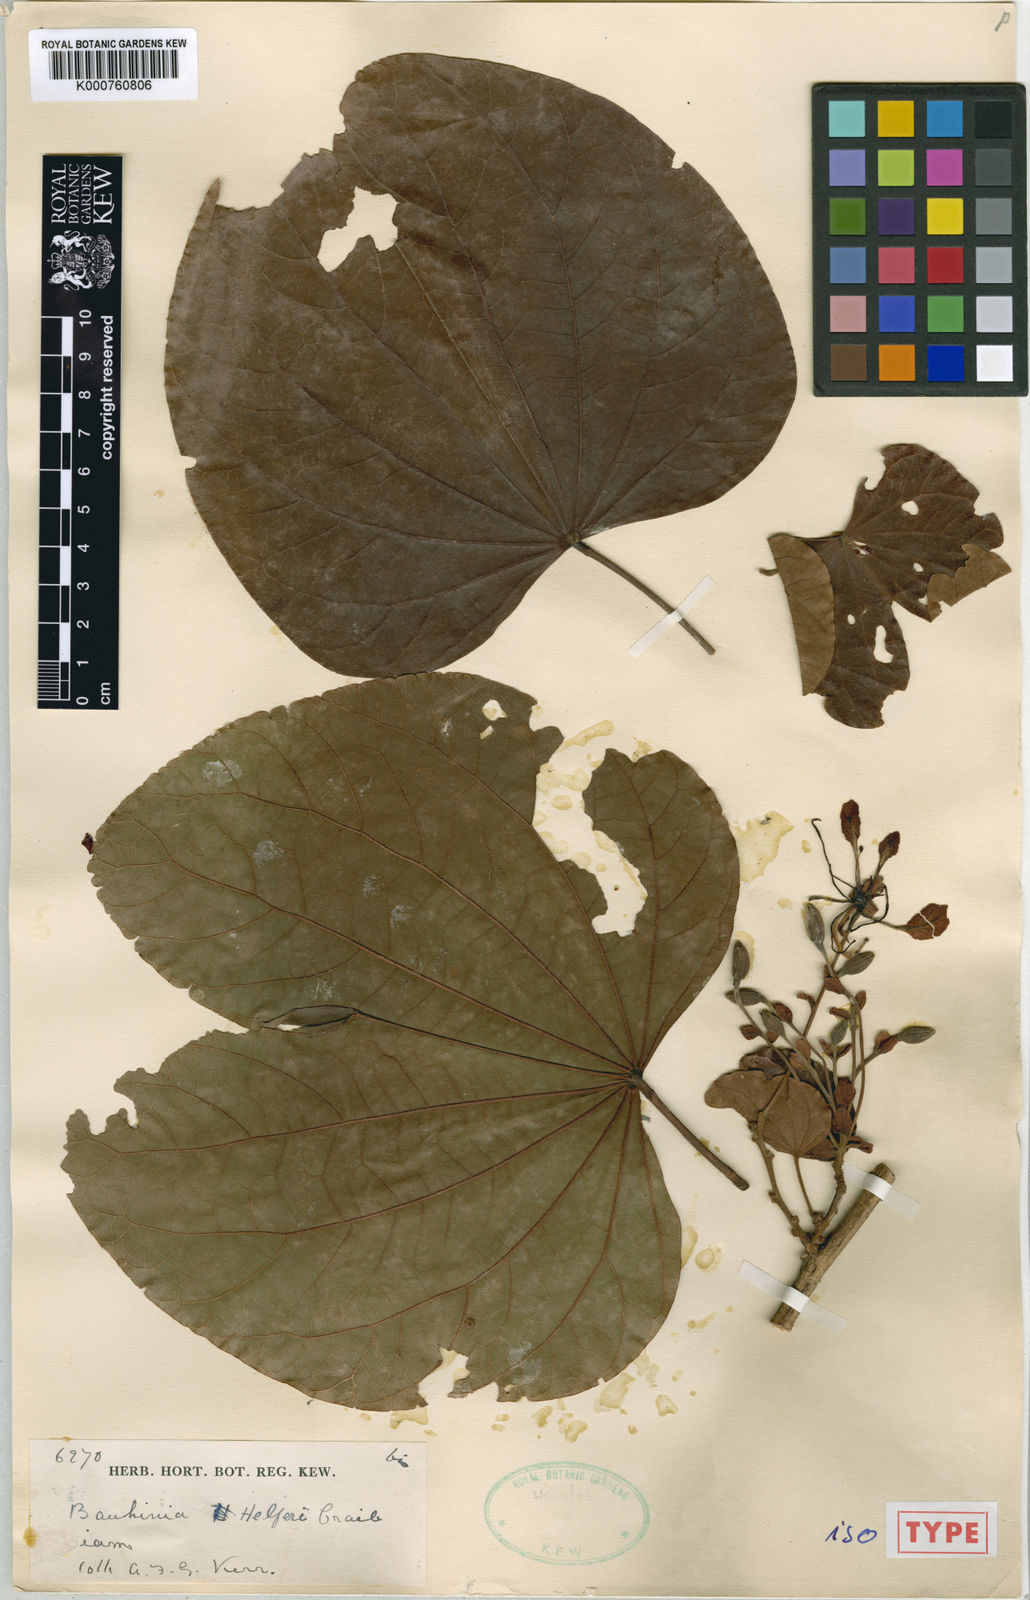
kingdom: Plantae
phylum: Tracheophyta
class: Magnoliopsida
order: Fabales
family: Fabaceae
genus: Phanera
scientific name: Phanera similis
